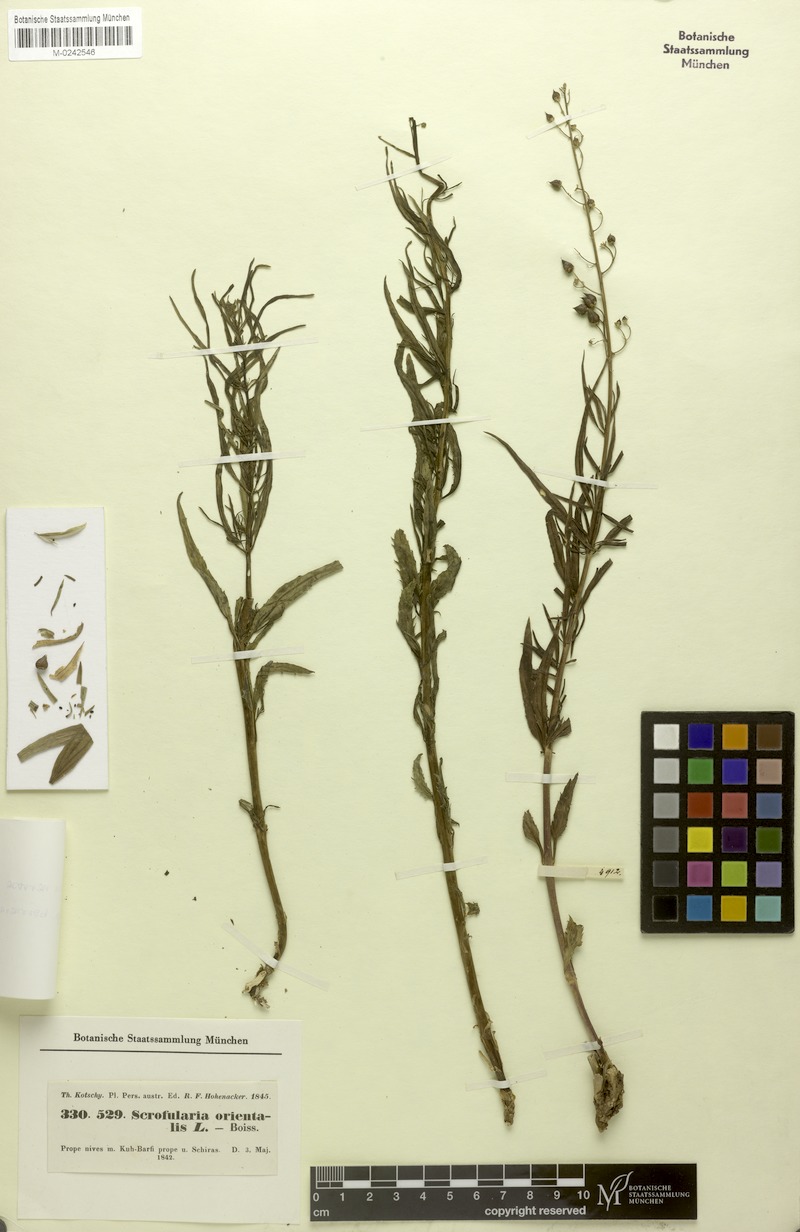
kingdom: Plantae
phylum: Tracheophyta
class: Magnoliopsida
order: Lamiales
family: Scrophulariaceae
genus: Scrophularia
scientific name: Scrophularia nervosa
